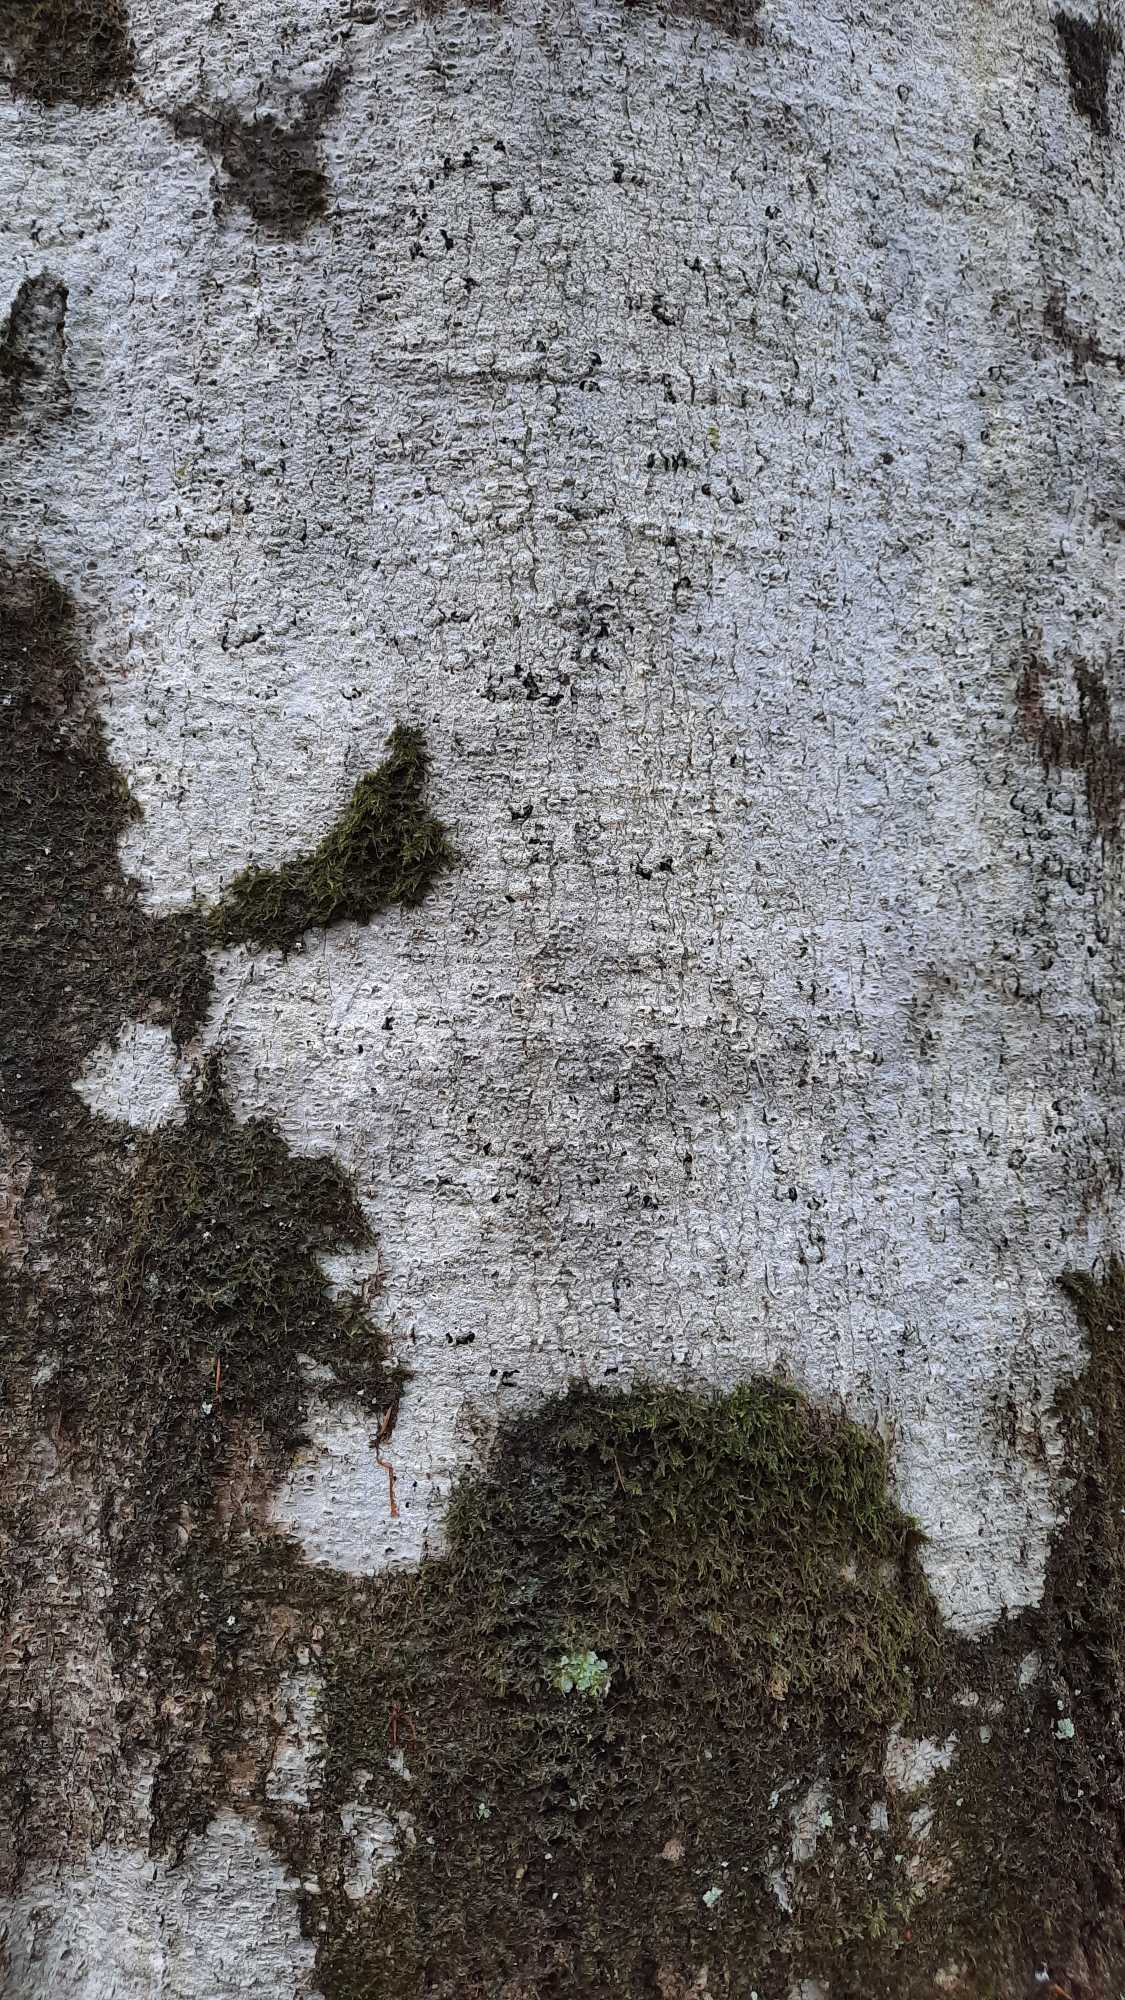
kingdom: Fungi
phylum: Ascomycota
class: Lecanoromycetes
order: Ostropales
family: Graphidaceae
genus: Thelotrema
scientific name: Thelotrema lepadinum
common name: Almindelig slørkantlav
